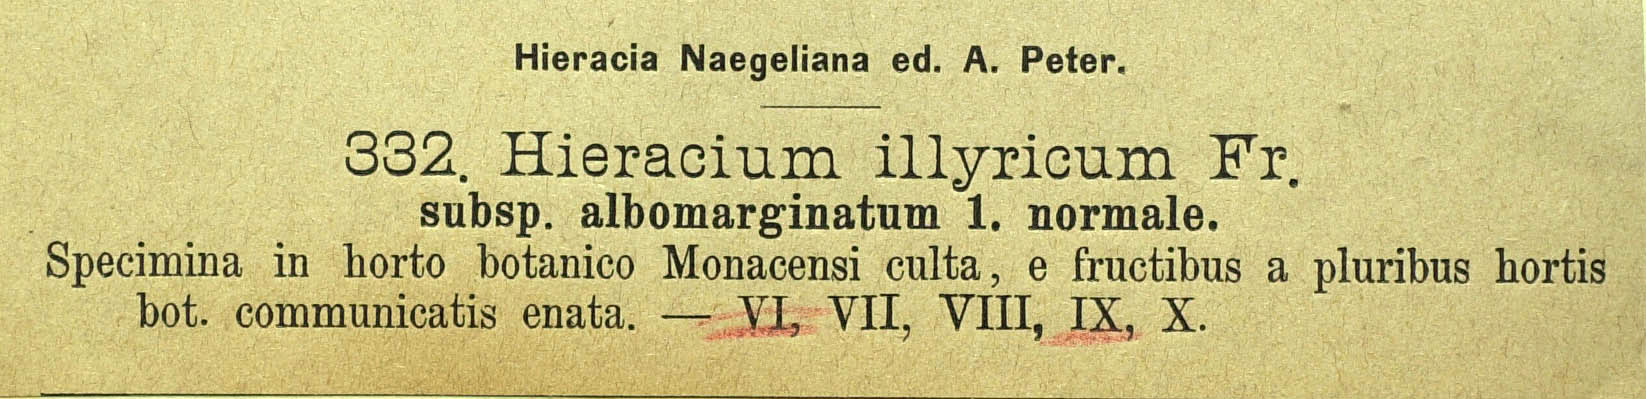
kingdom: Plantae
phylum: Tracheophyta
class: Magnoliopsida
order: Asterales
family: Asteraceae
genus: Hieracium
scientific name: Hieracium calcareum
